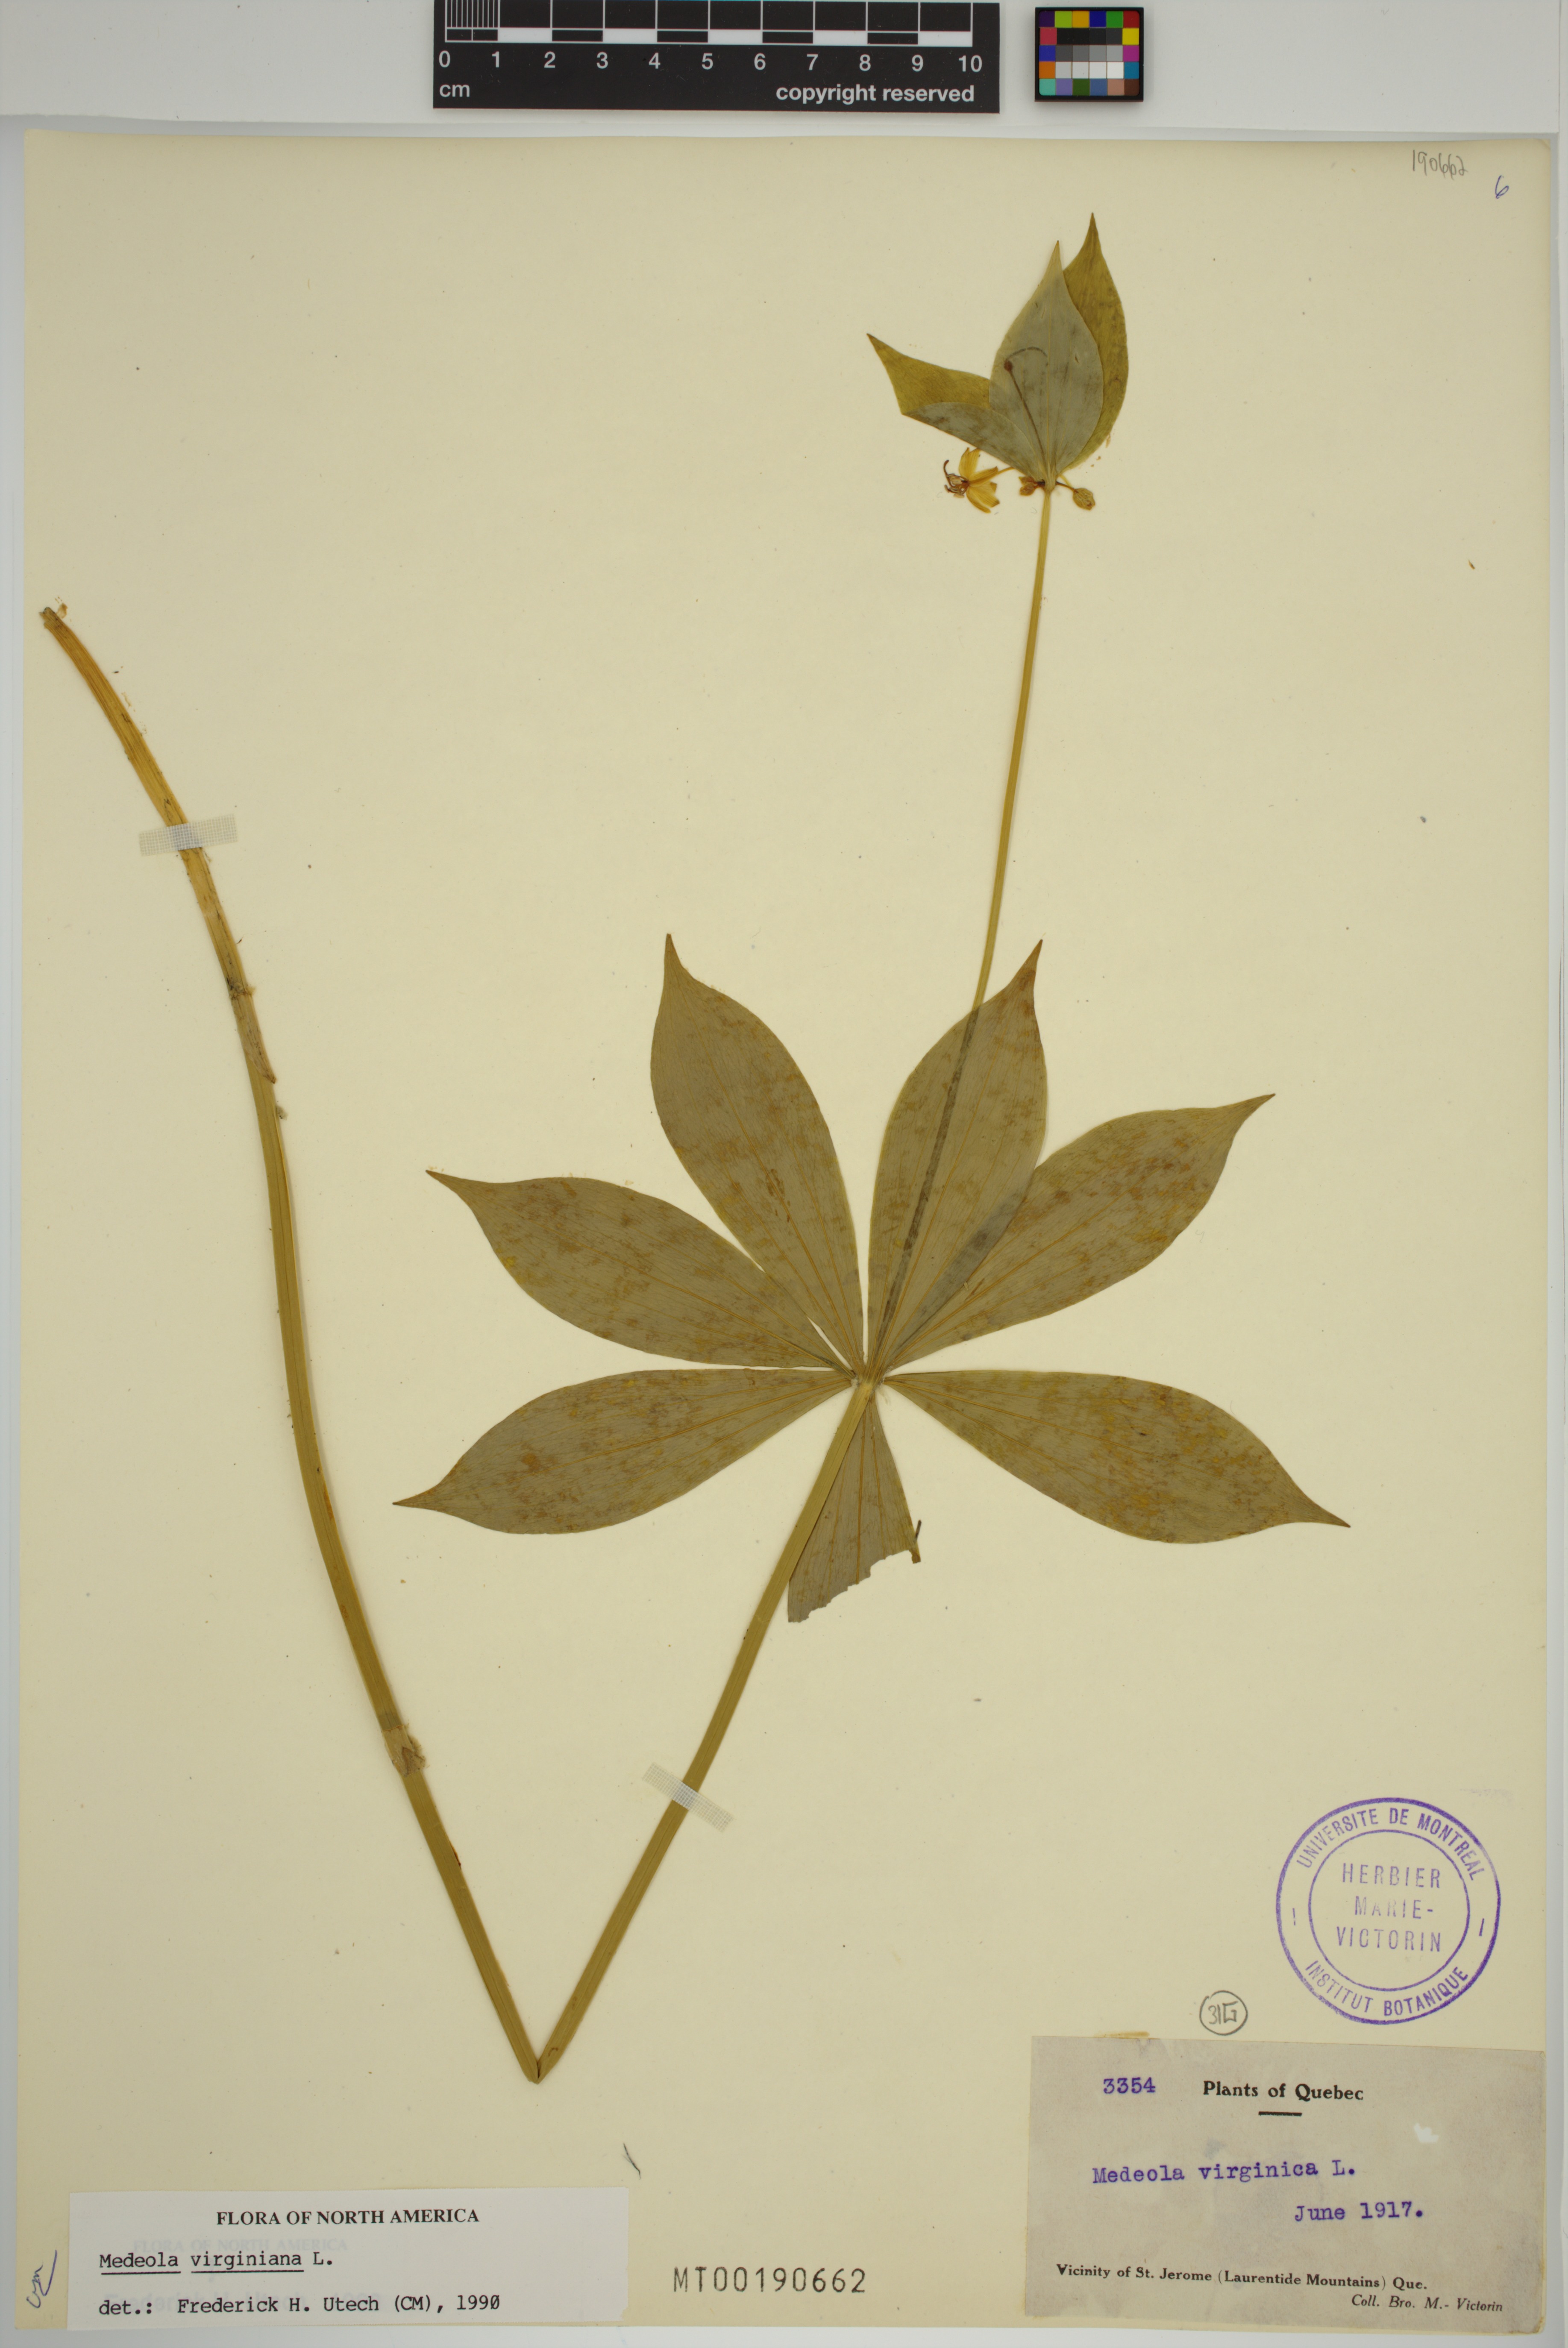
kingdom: Plantae
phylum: Tracheophyta
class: Liliopsida
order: Liliales
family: Liliaceae
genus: Medeola
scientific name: Medeola virginiana
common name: Indian cucumber-root
